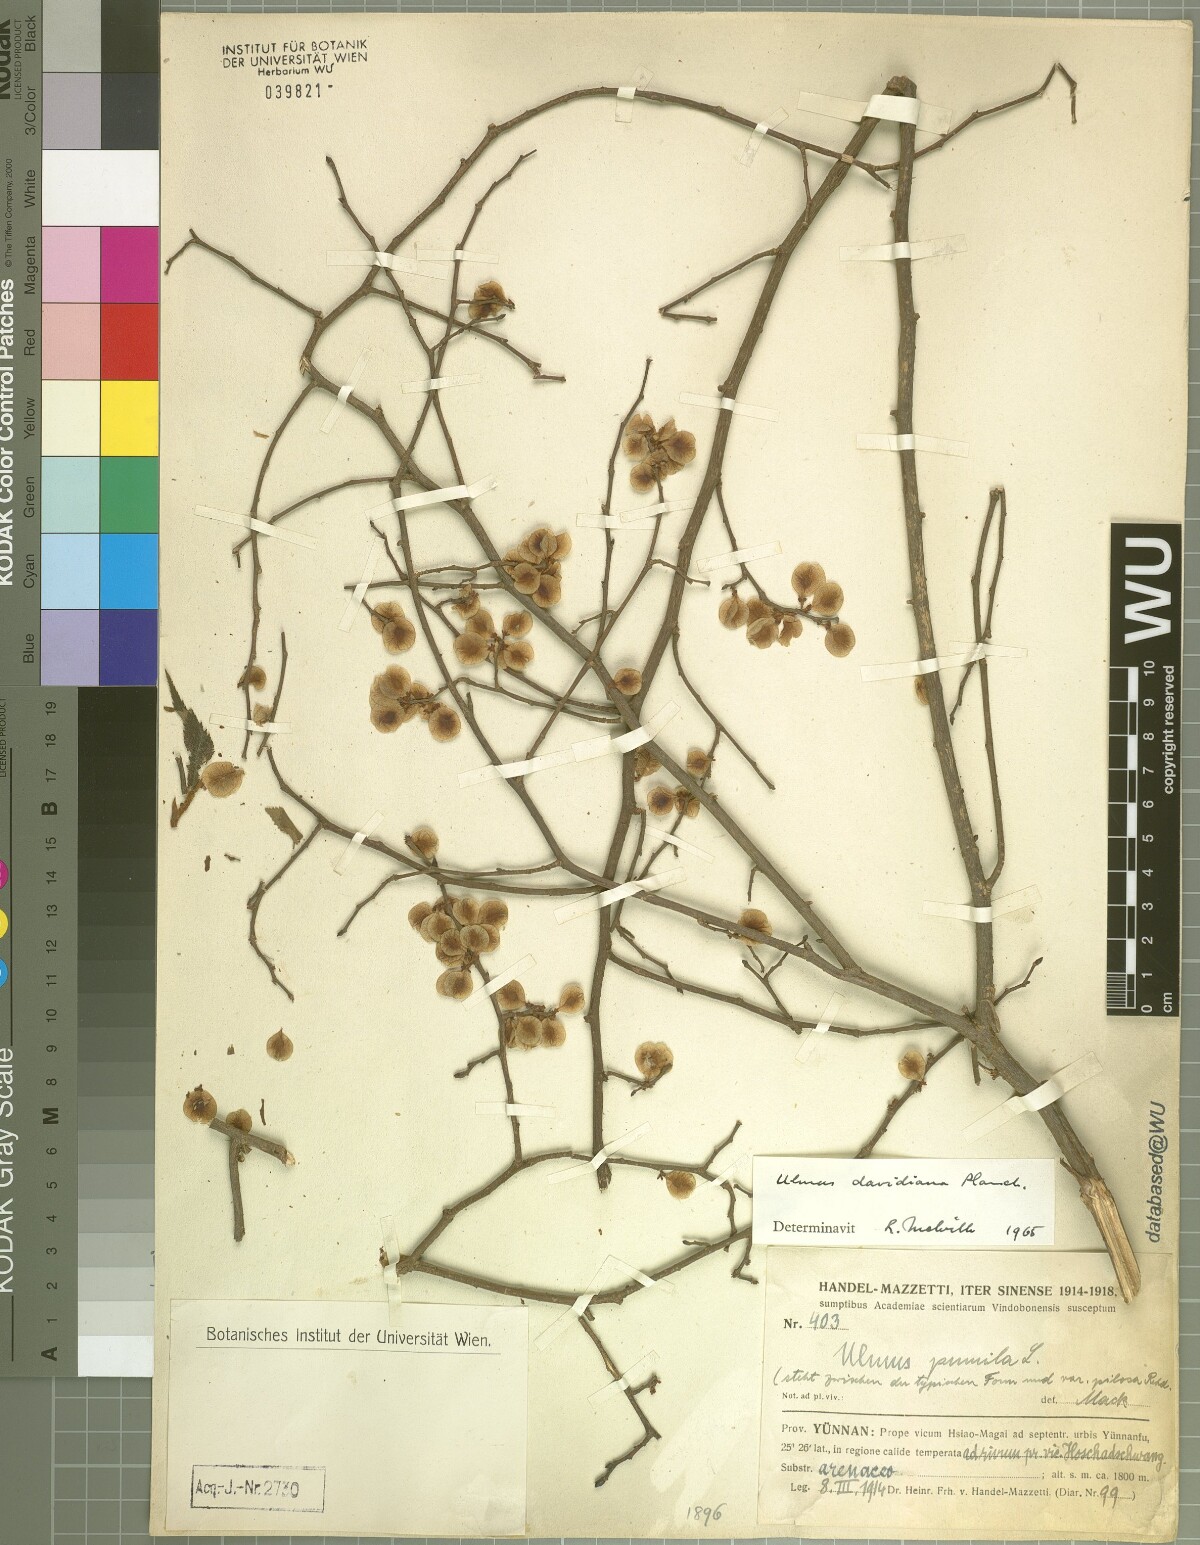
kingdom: Plantae
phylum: Tracheophyta
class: Magnoliopsida
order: Rosales
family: Ulmaceae
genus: Ulmus
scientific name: Ulmus davidiana
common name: Japanese elm
